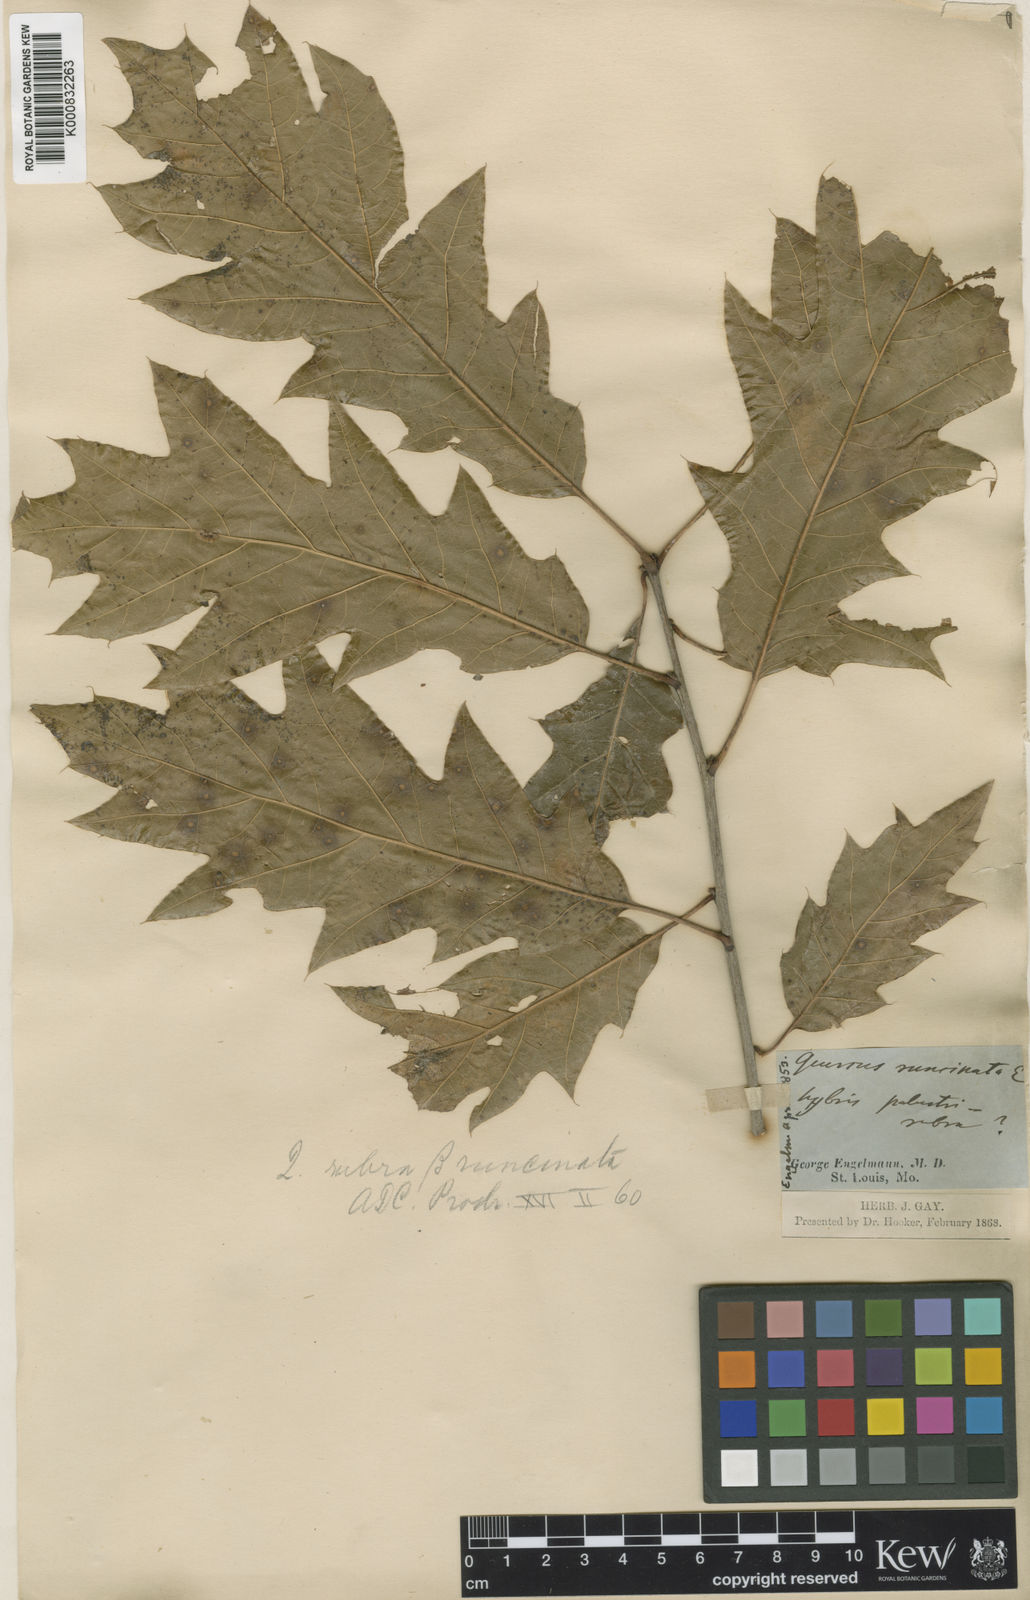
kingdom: Plantae
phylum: Tracheophyta
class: Magnoliopsida
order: Fagales
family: Fagaceae
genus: Quercus
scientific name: Quercus imbricaria
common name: Shingle oak
